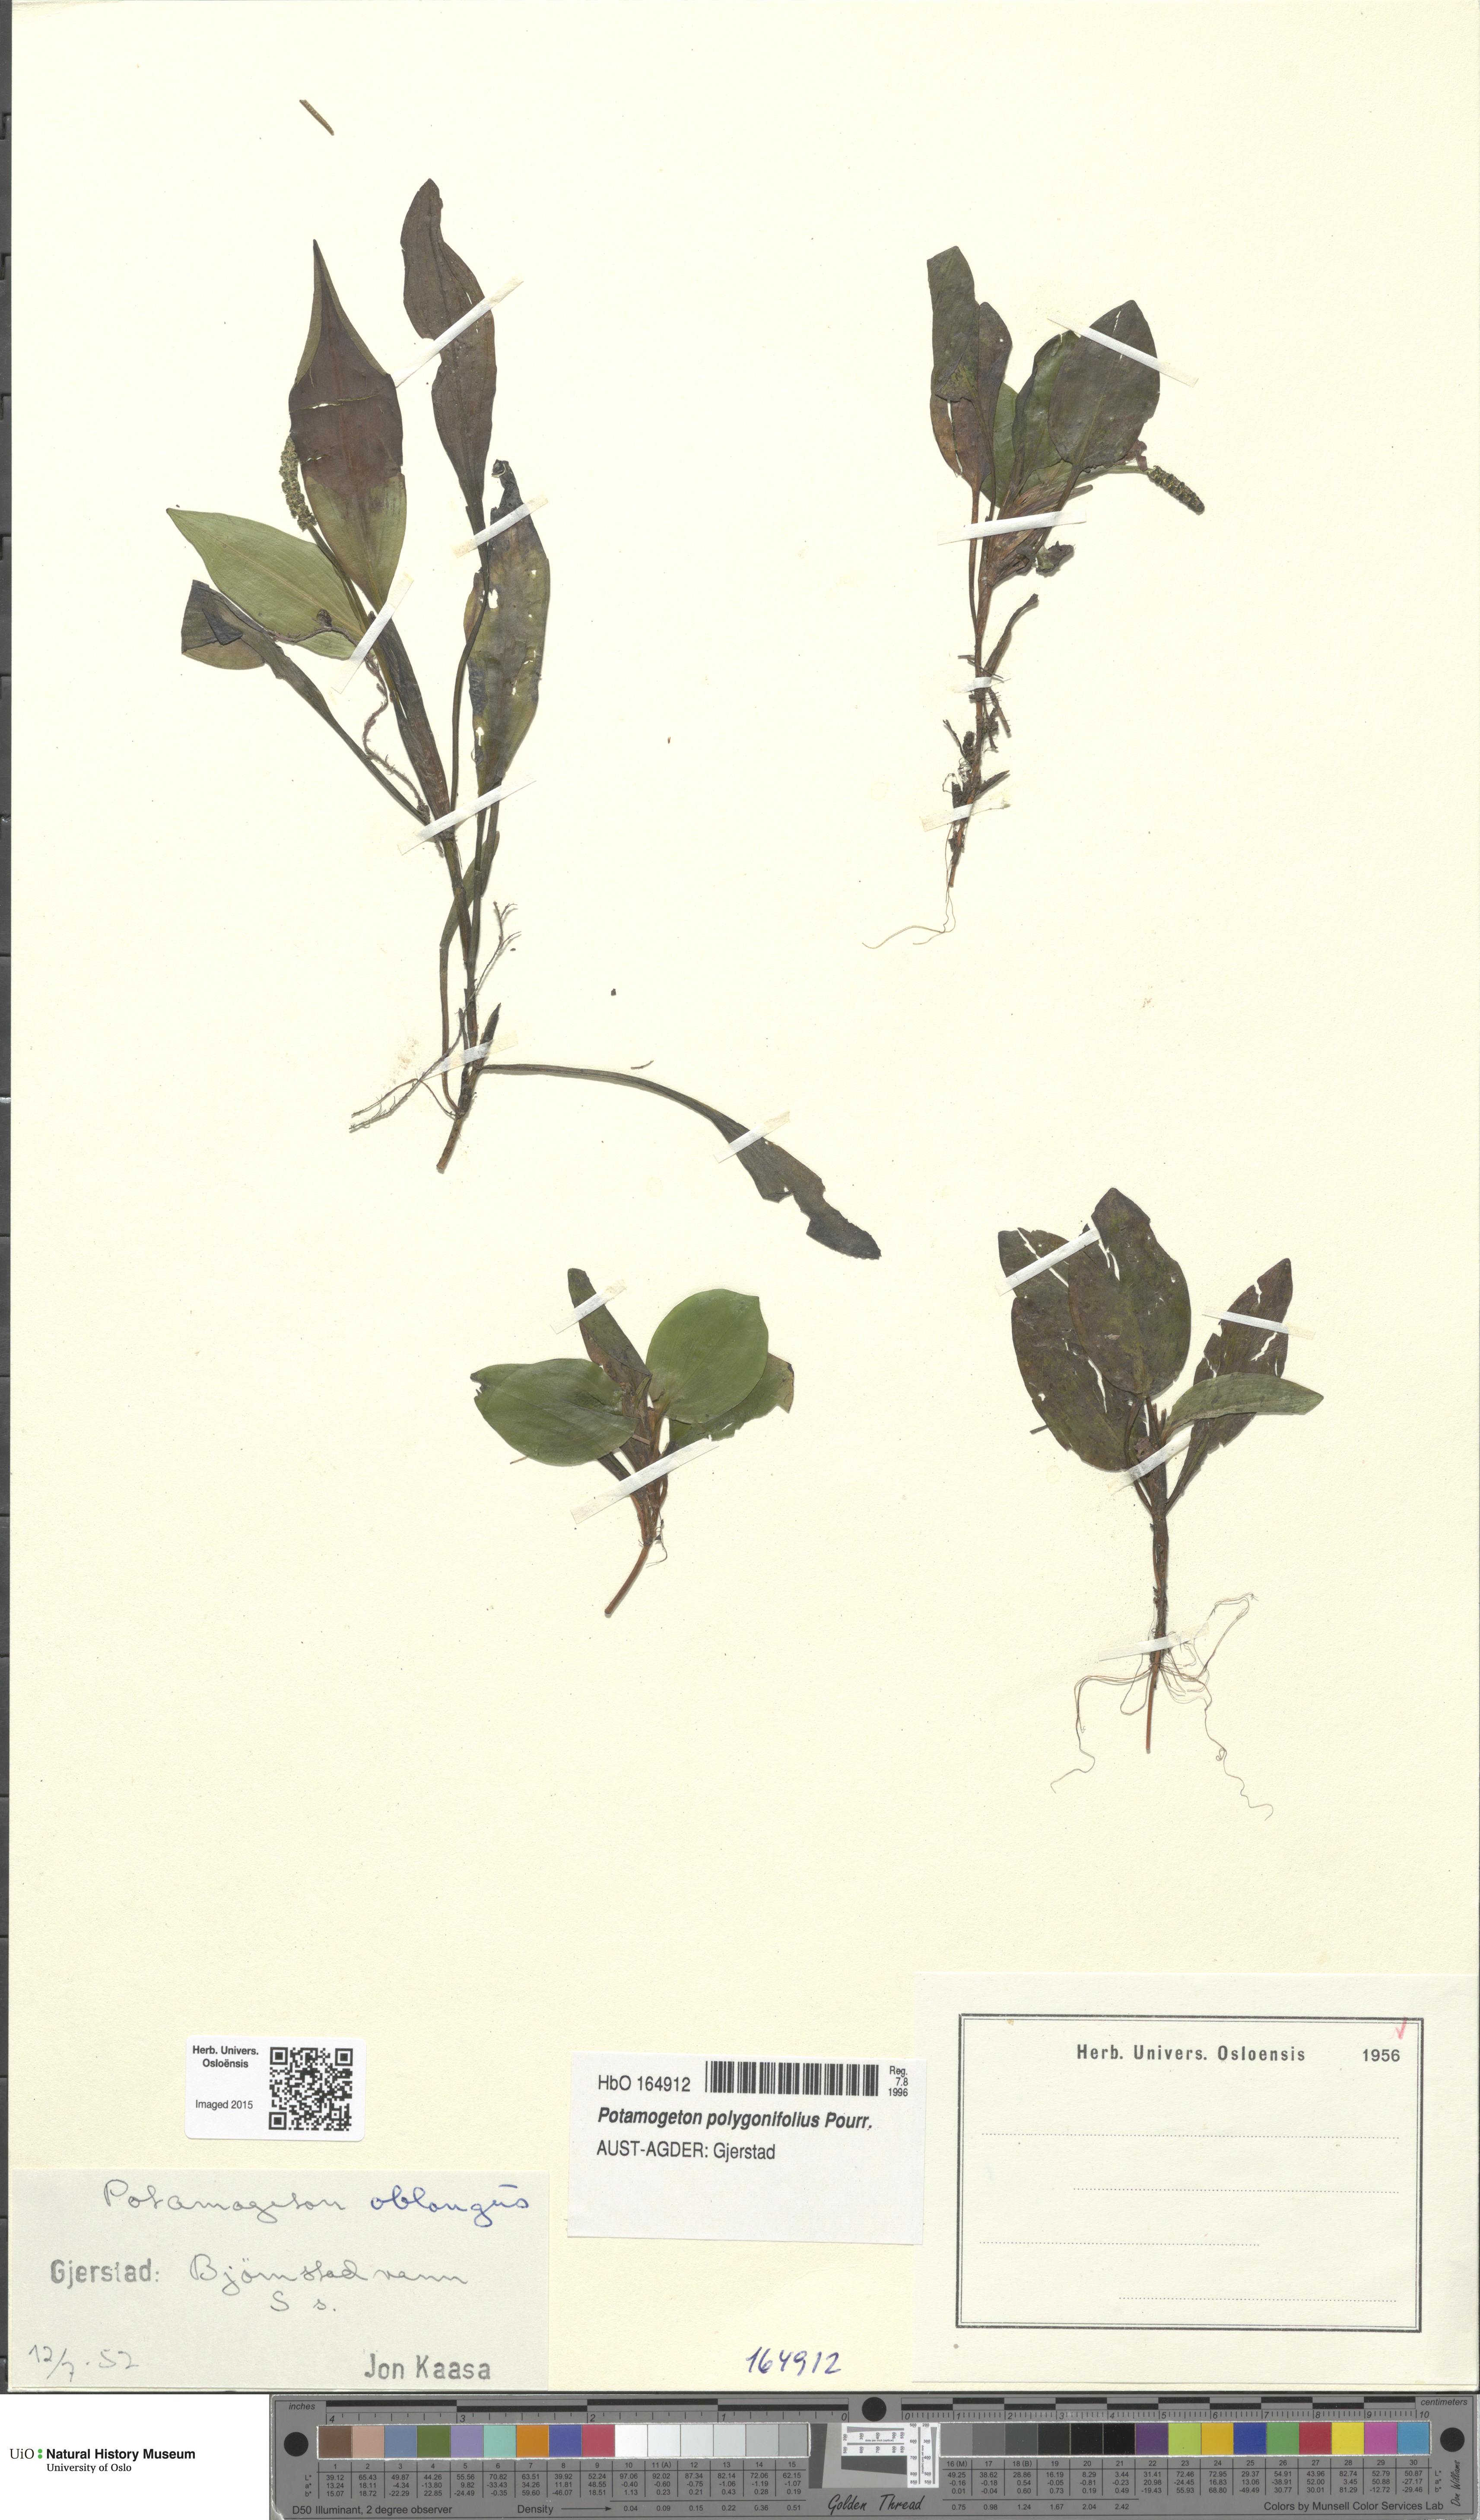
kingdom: Plantae
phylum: Tracheophyta
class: Liliopsida
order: Alismatales
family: Potamogetonaceae
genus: Potamogeton
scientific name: Potamogeton polygonifolius
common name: Bog pondweed
